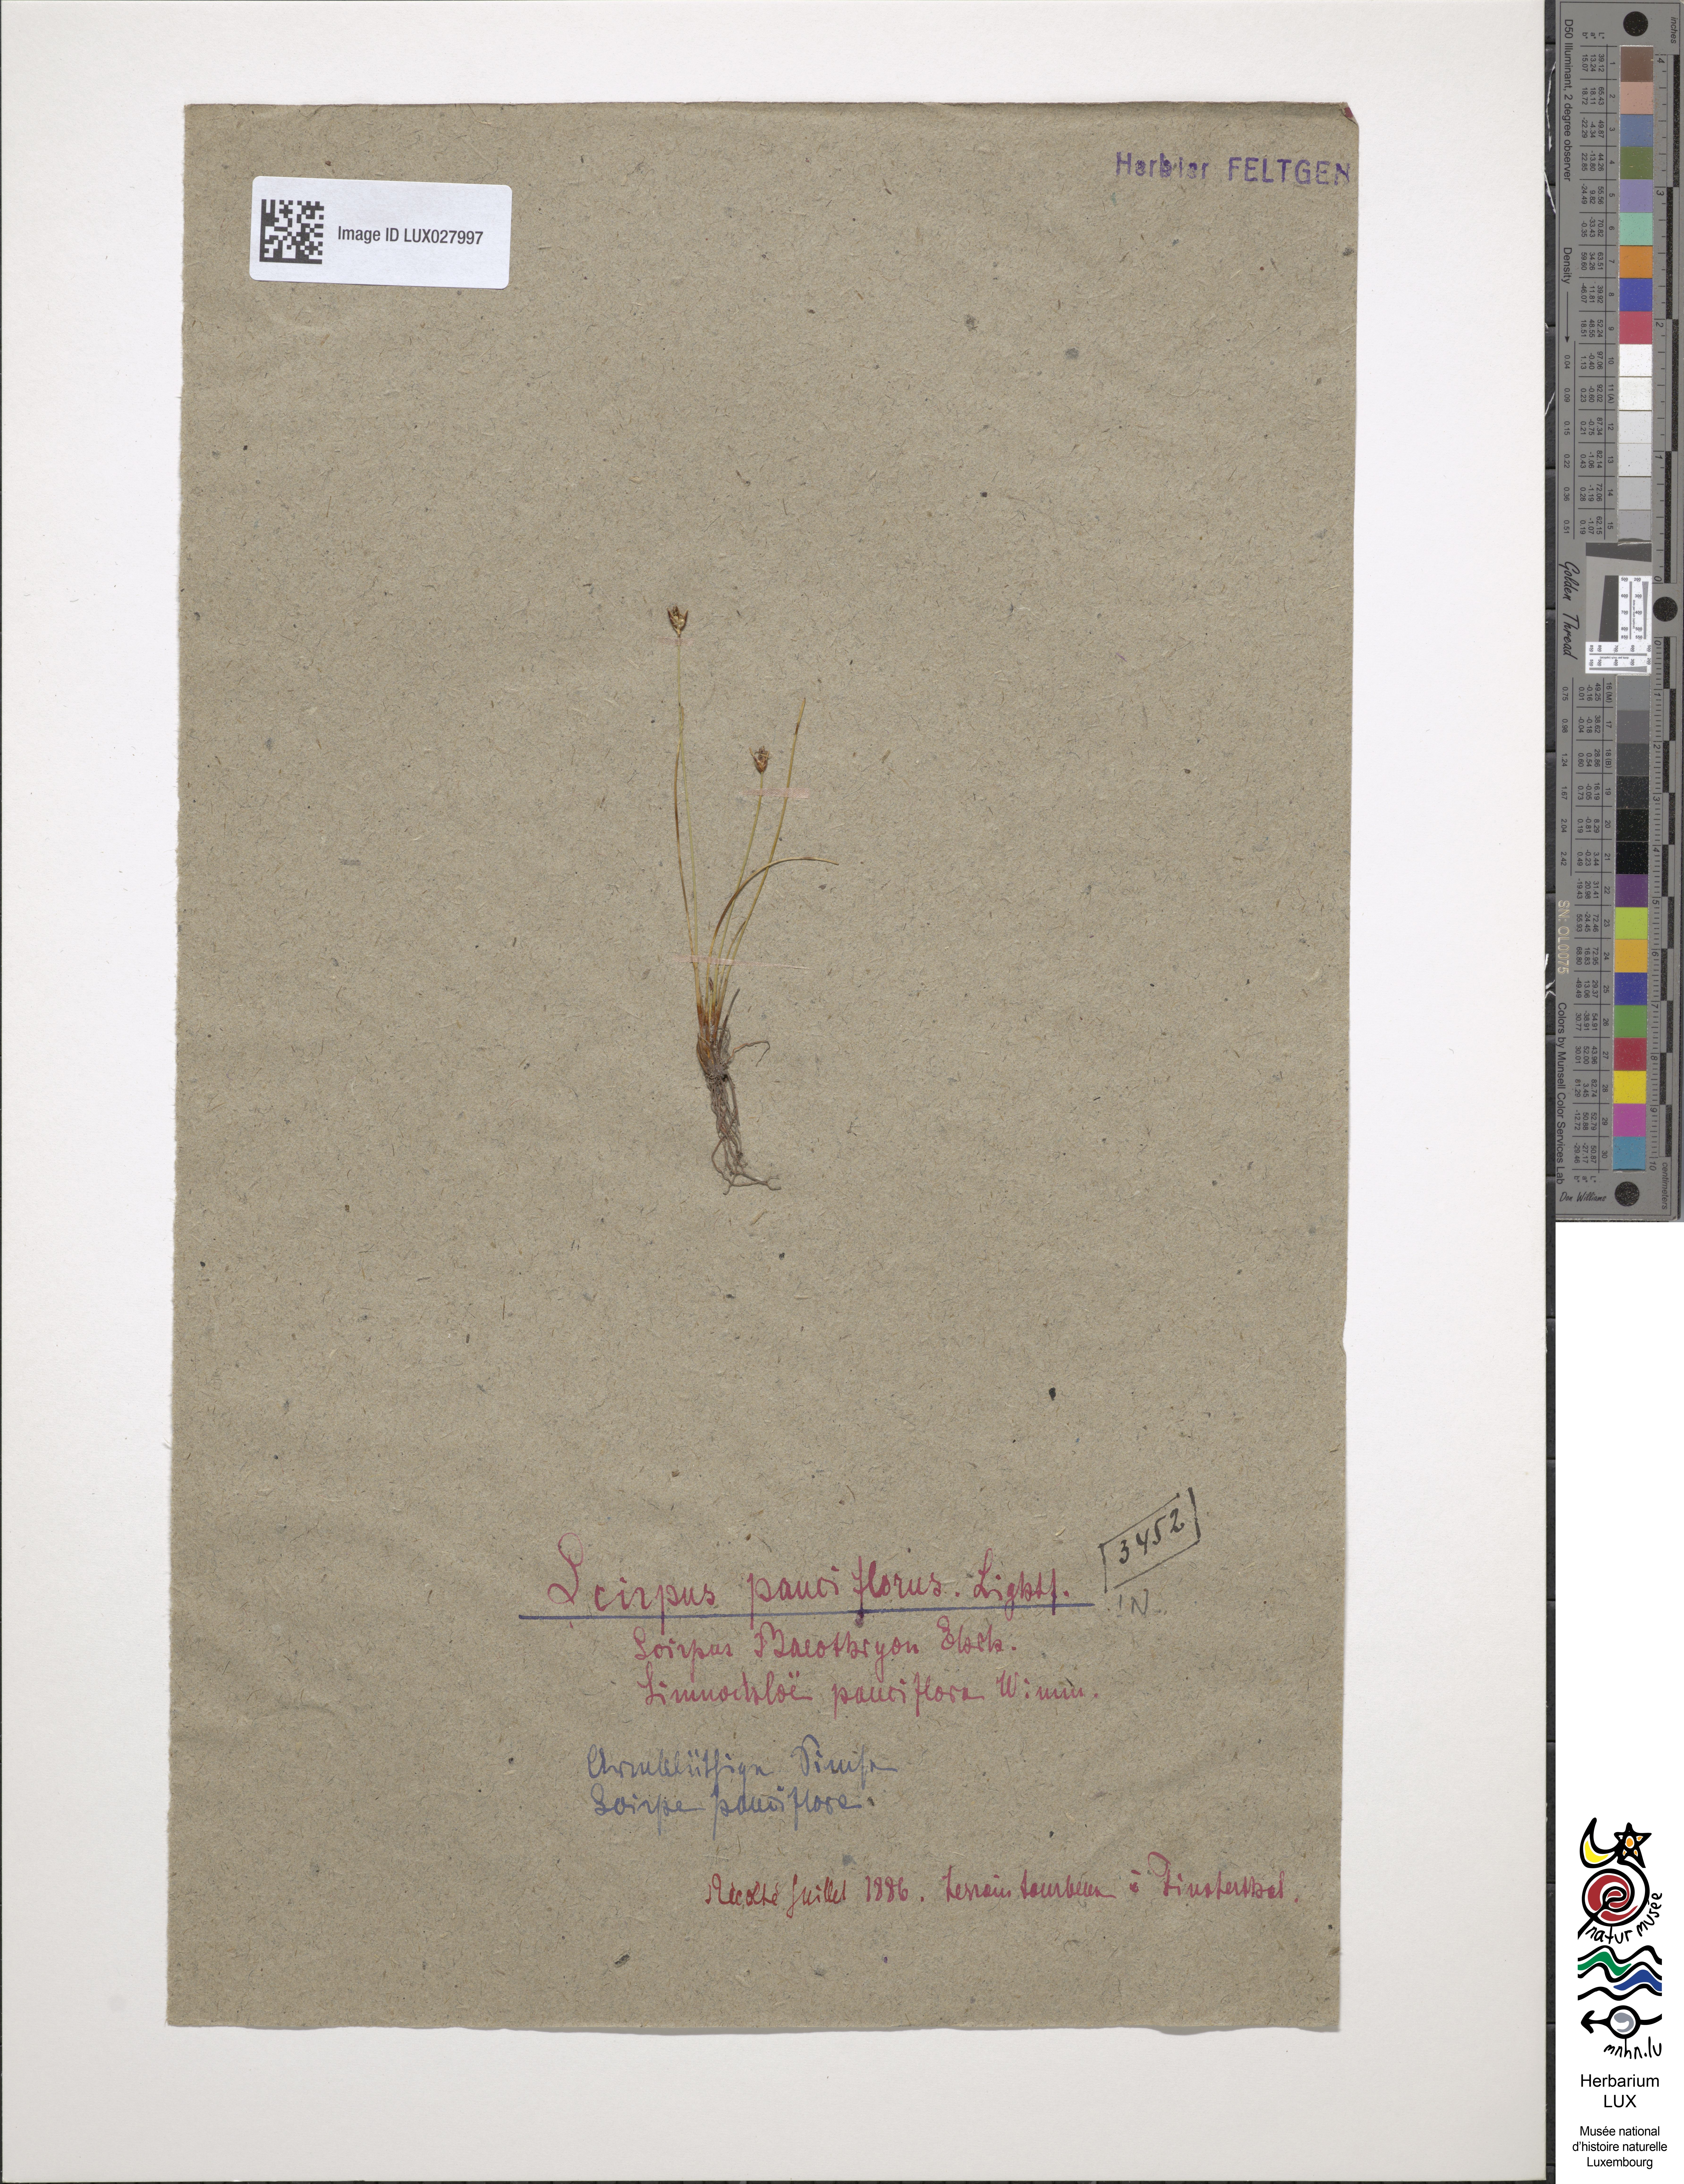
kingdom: Plantae
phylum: Tracheophyta
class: Liliopsida
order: Poales
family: Cyperaceae
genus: Eleocharis
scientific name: Eleocharis quinqueflora
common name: Few-flowered spike-rush
